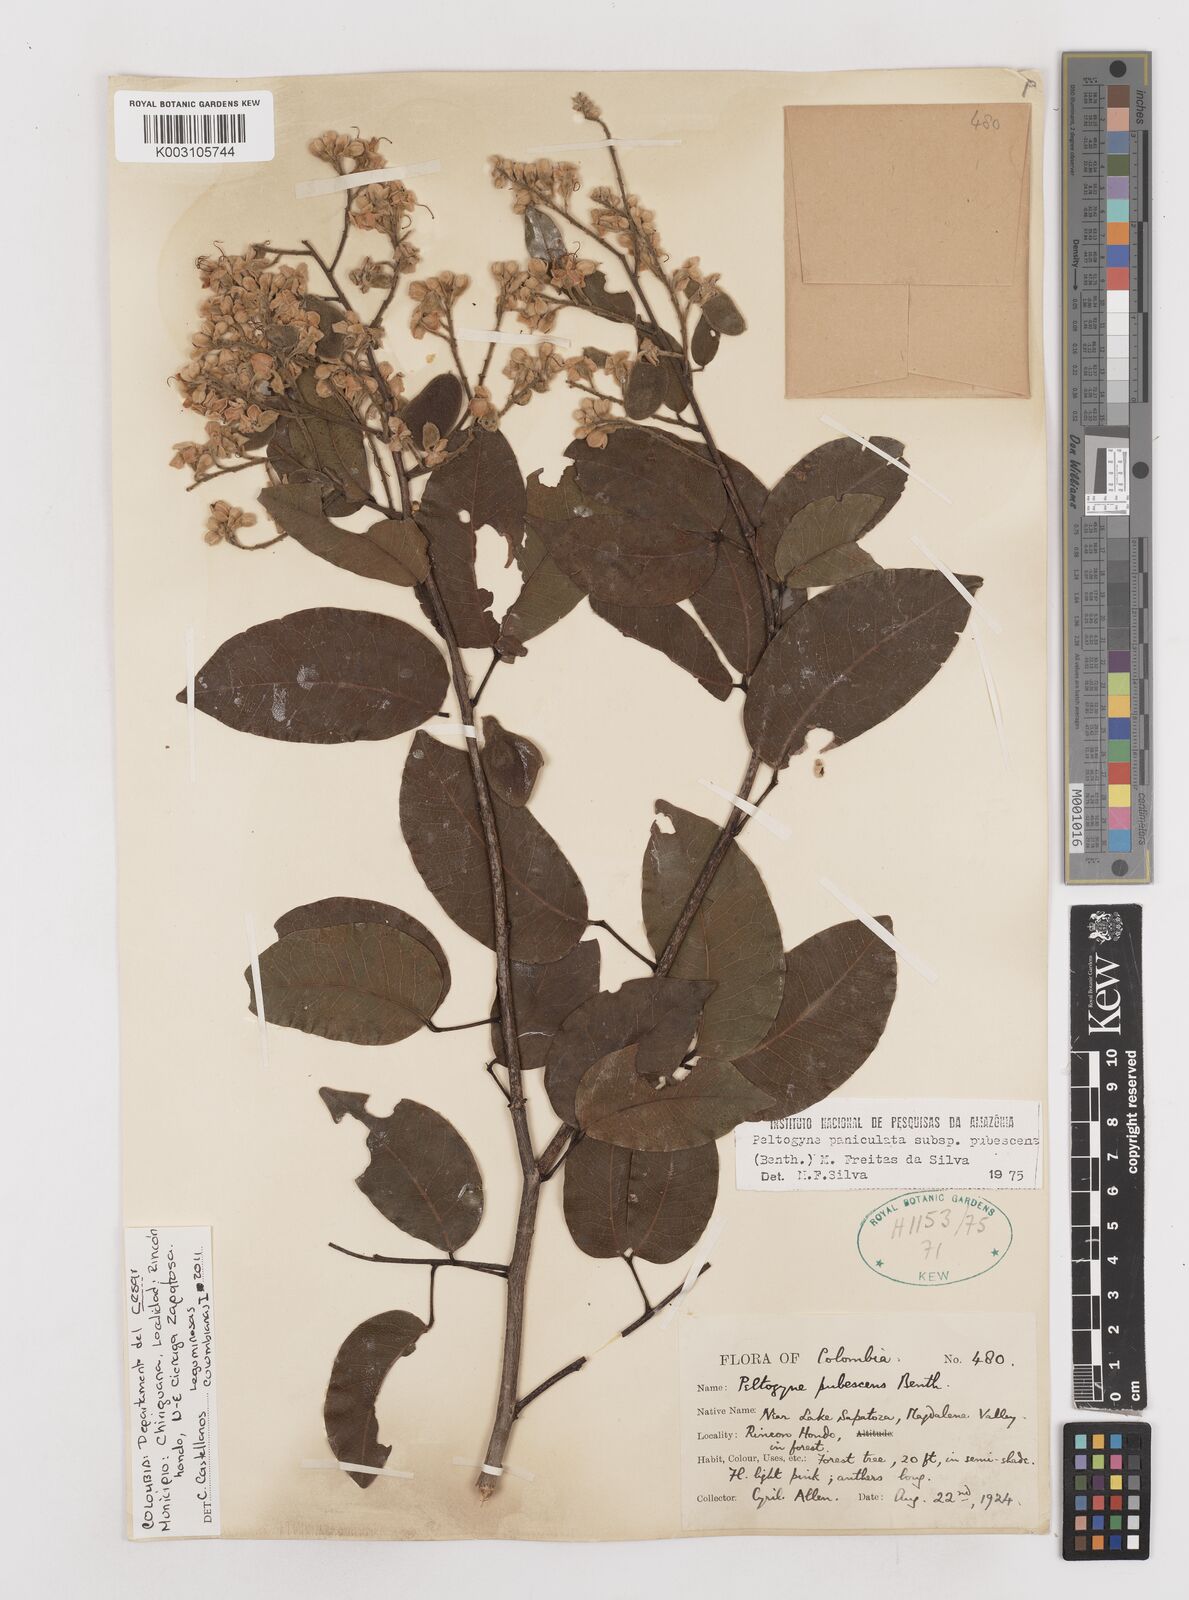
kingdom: Plantae
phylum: Tracheophyta
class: Magnoliopsida
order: Fabales
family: Fabaceae
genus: Peltogyne
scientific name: Peltogyne paniculata
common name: Purpleheart
